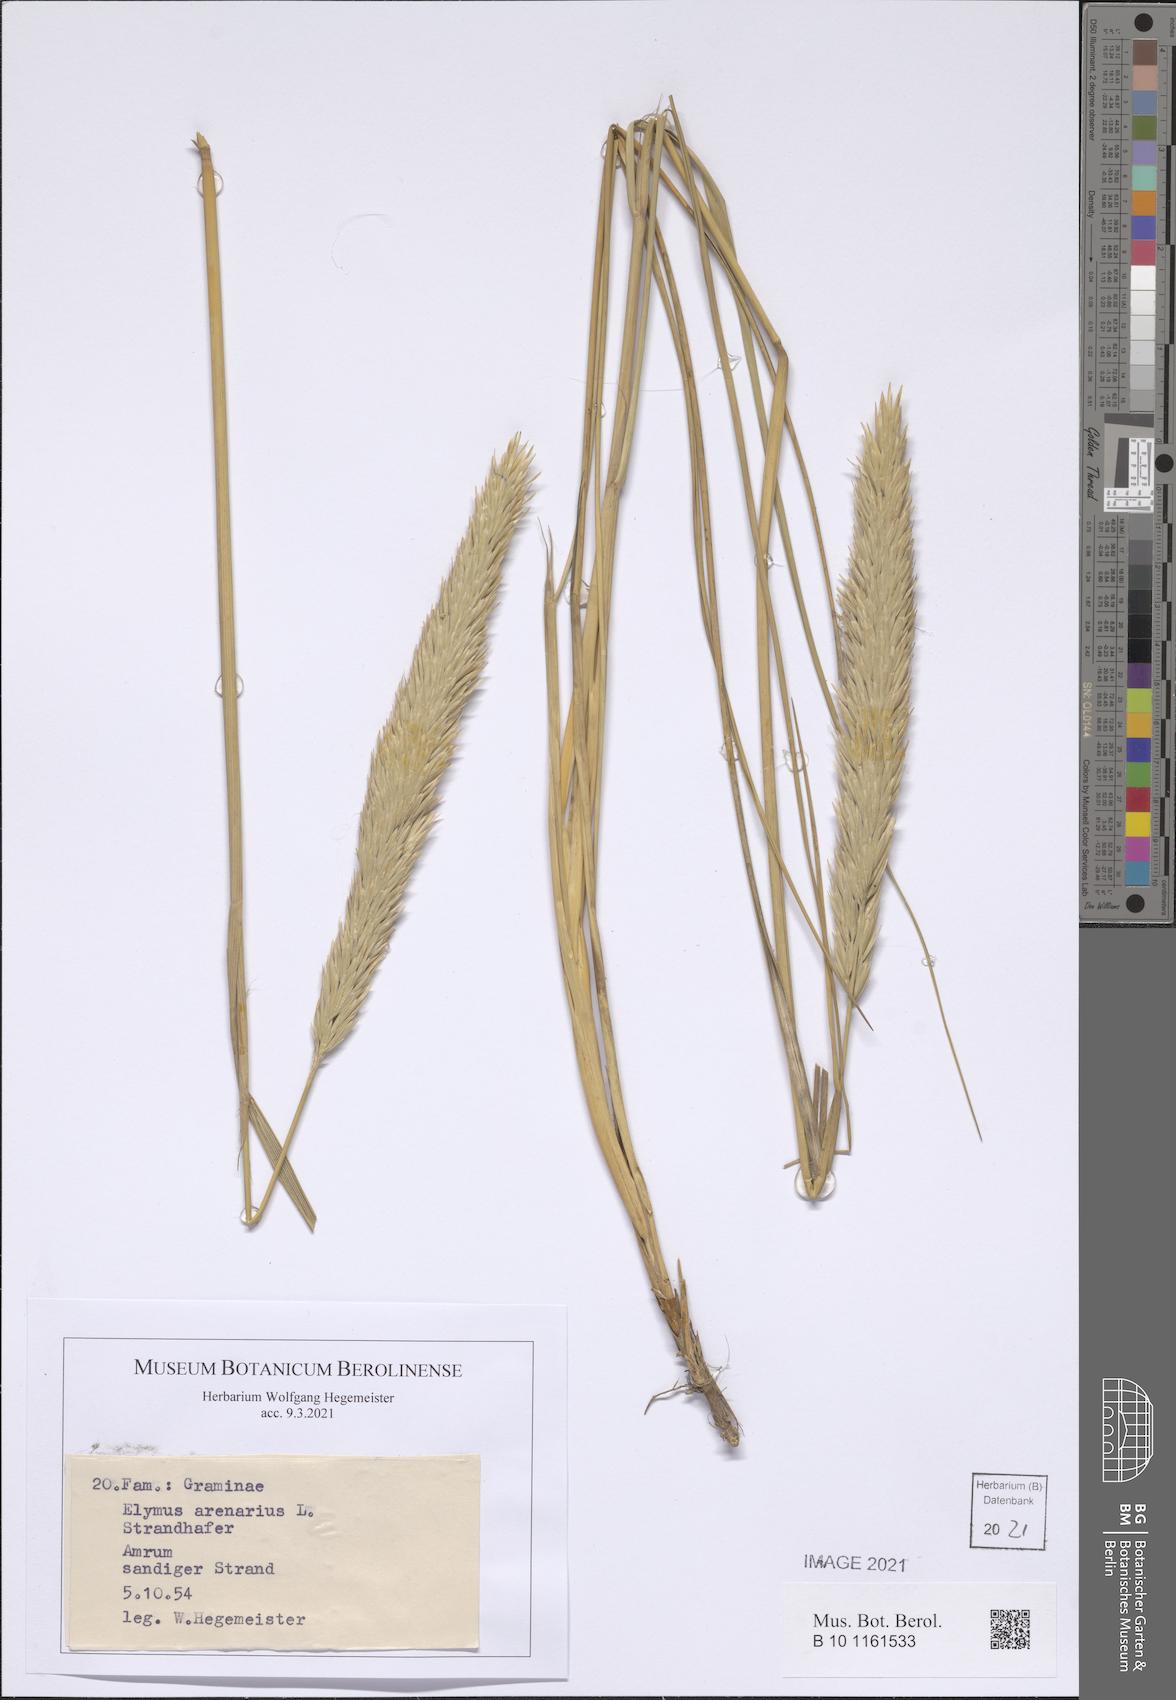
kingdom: Plantae
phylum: Tracheophyta
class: Liliopsida
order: Poales
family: Poaceae
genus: Leymus
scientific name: Leymus arenarius
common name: Lyme-grass
